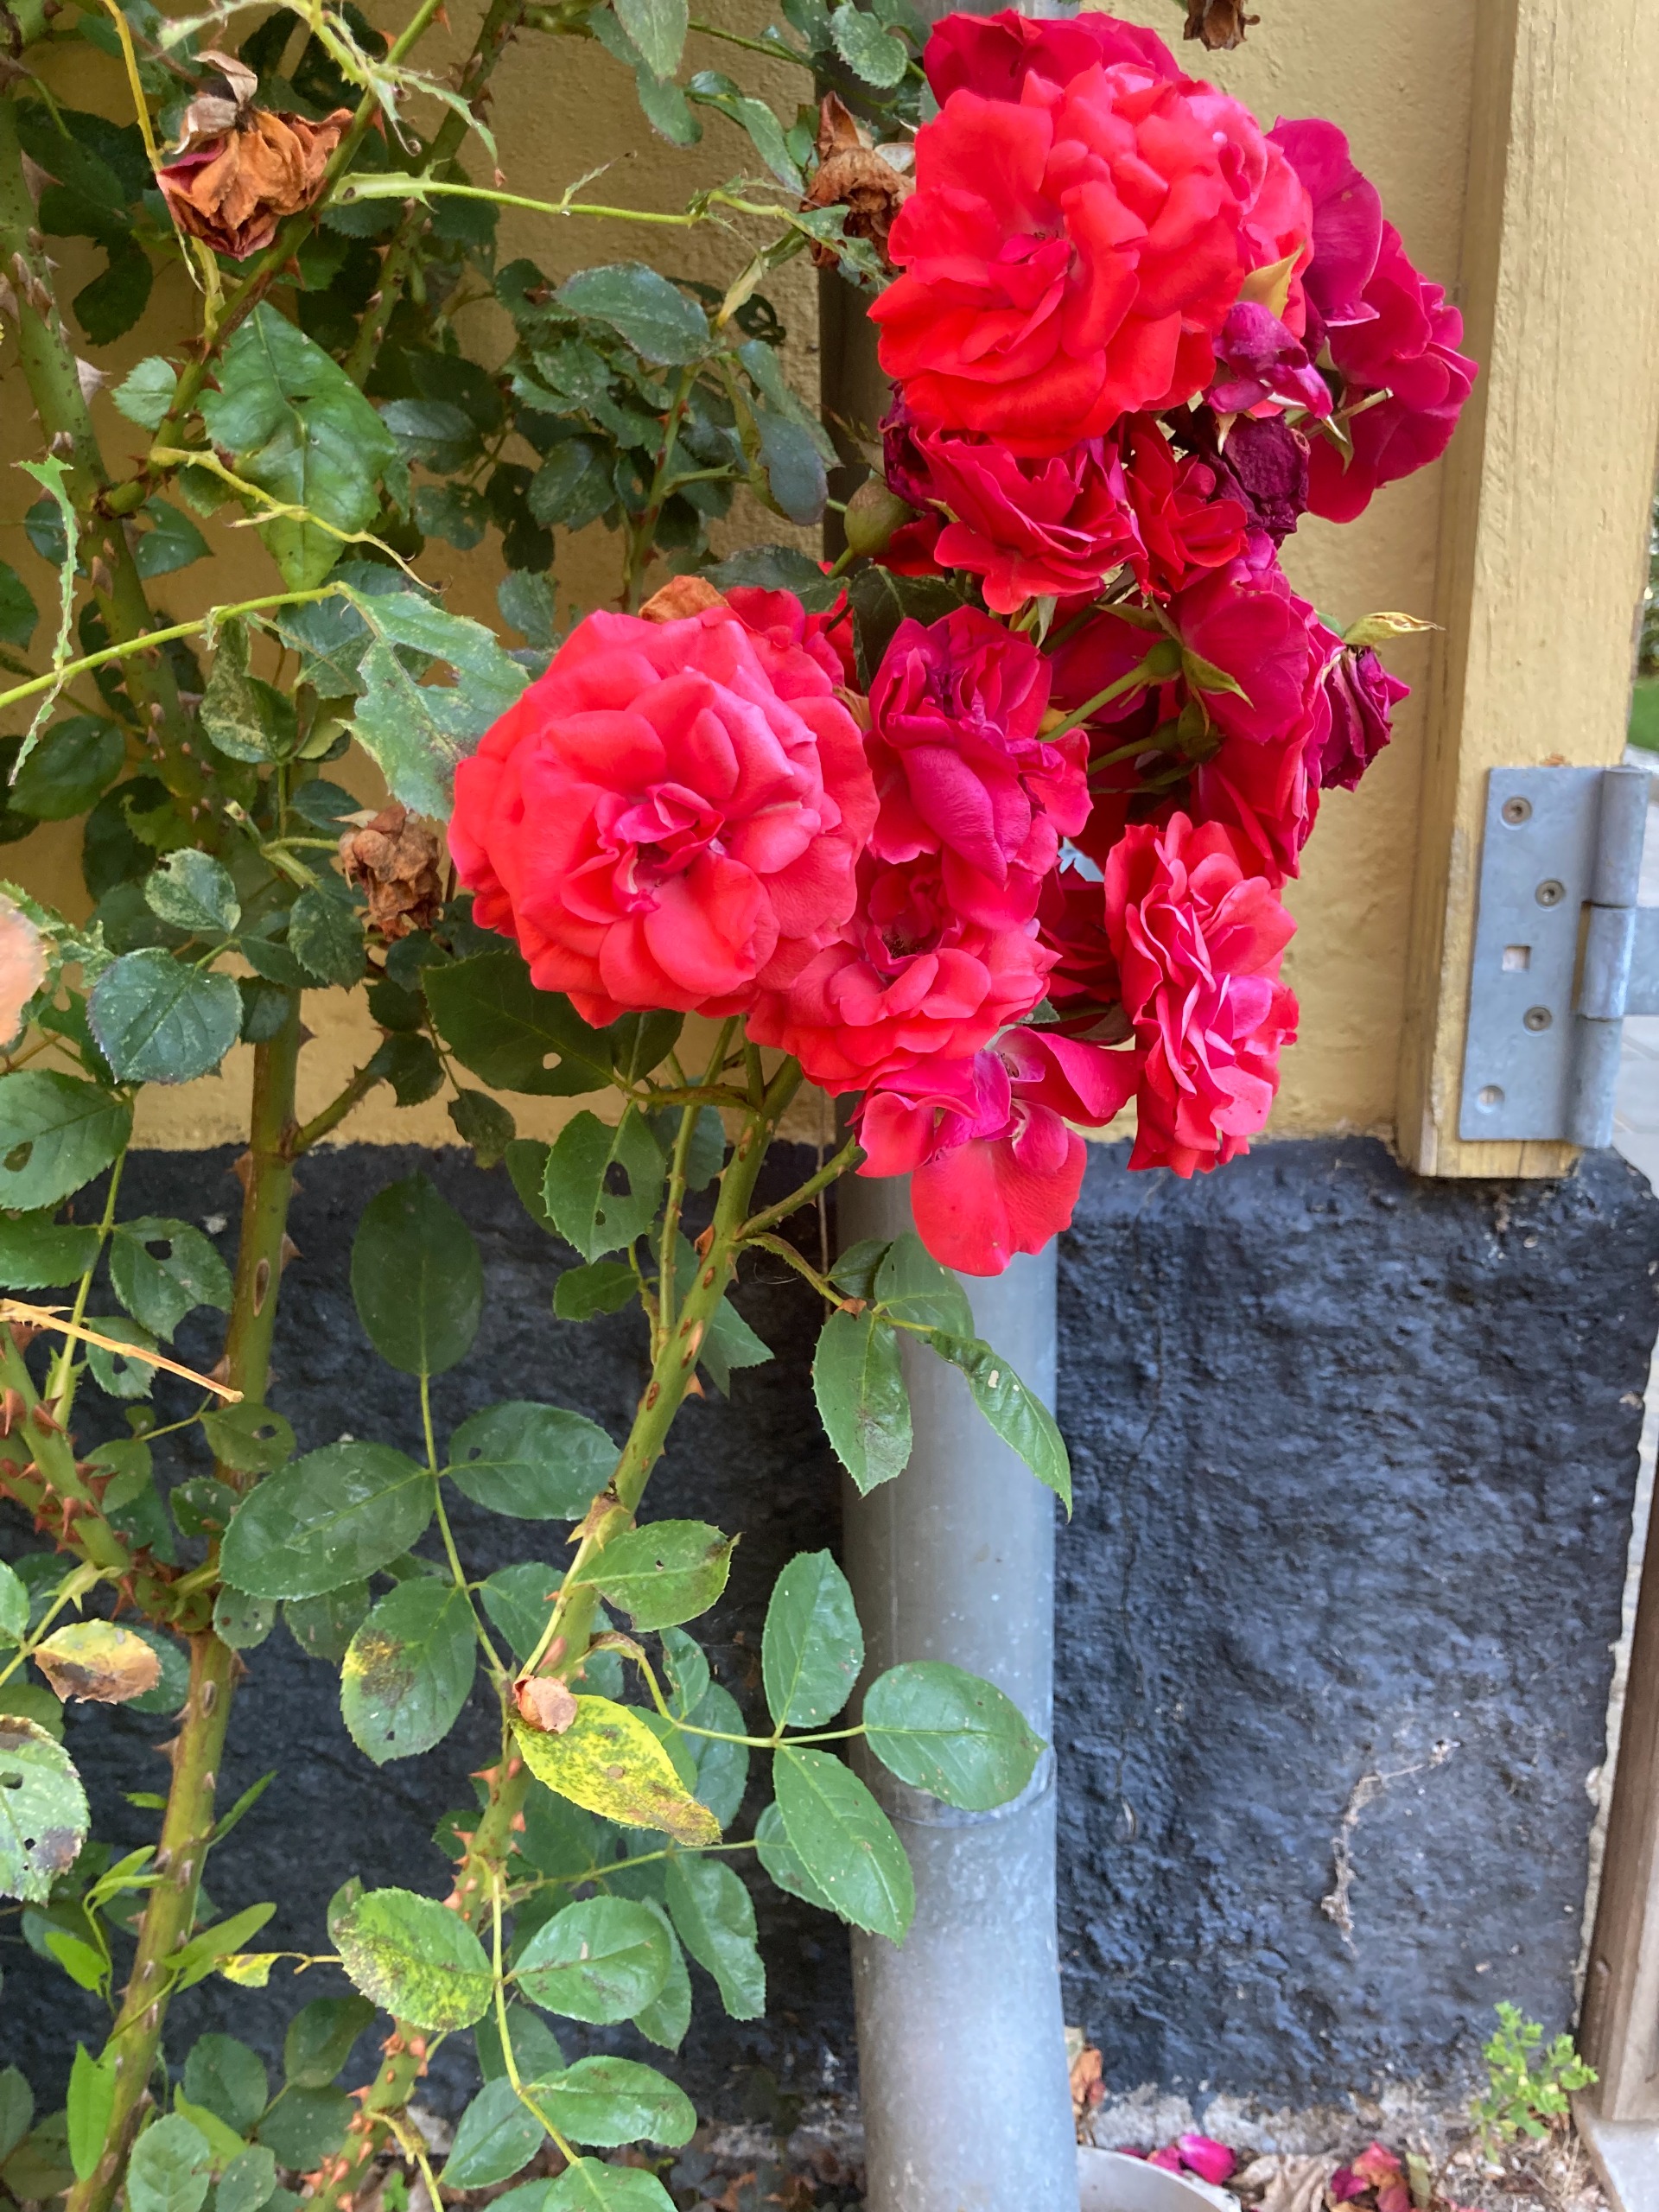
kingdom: Plantae
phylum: Tracheophyta
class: Magnoliopsida
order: Rosales
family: Rosaceae
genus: Rosa
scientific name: Rosa
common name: Roseslægten
